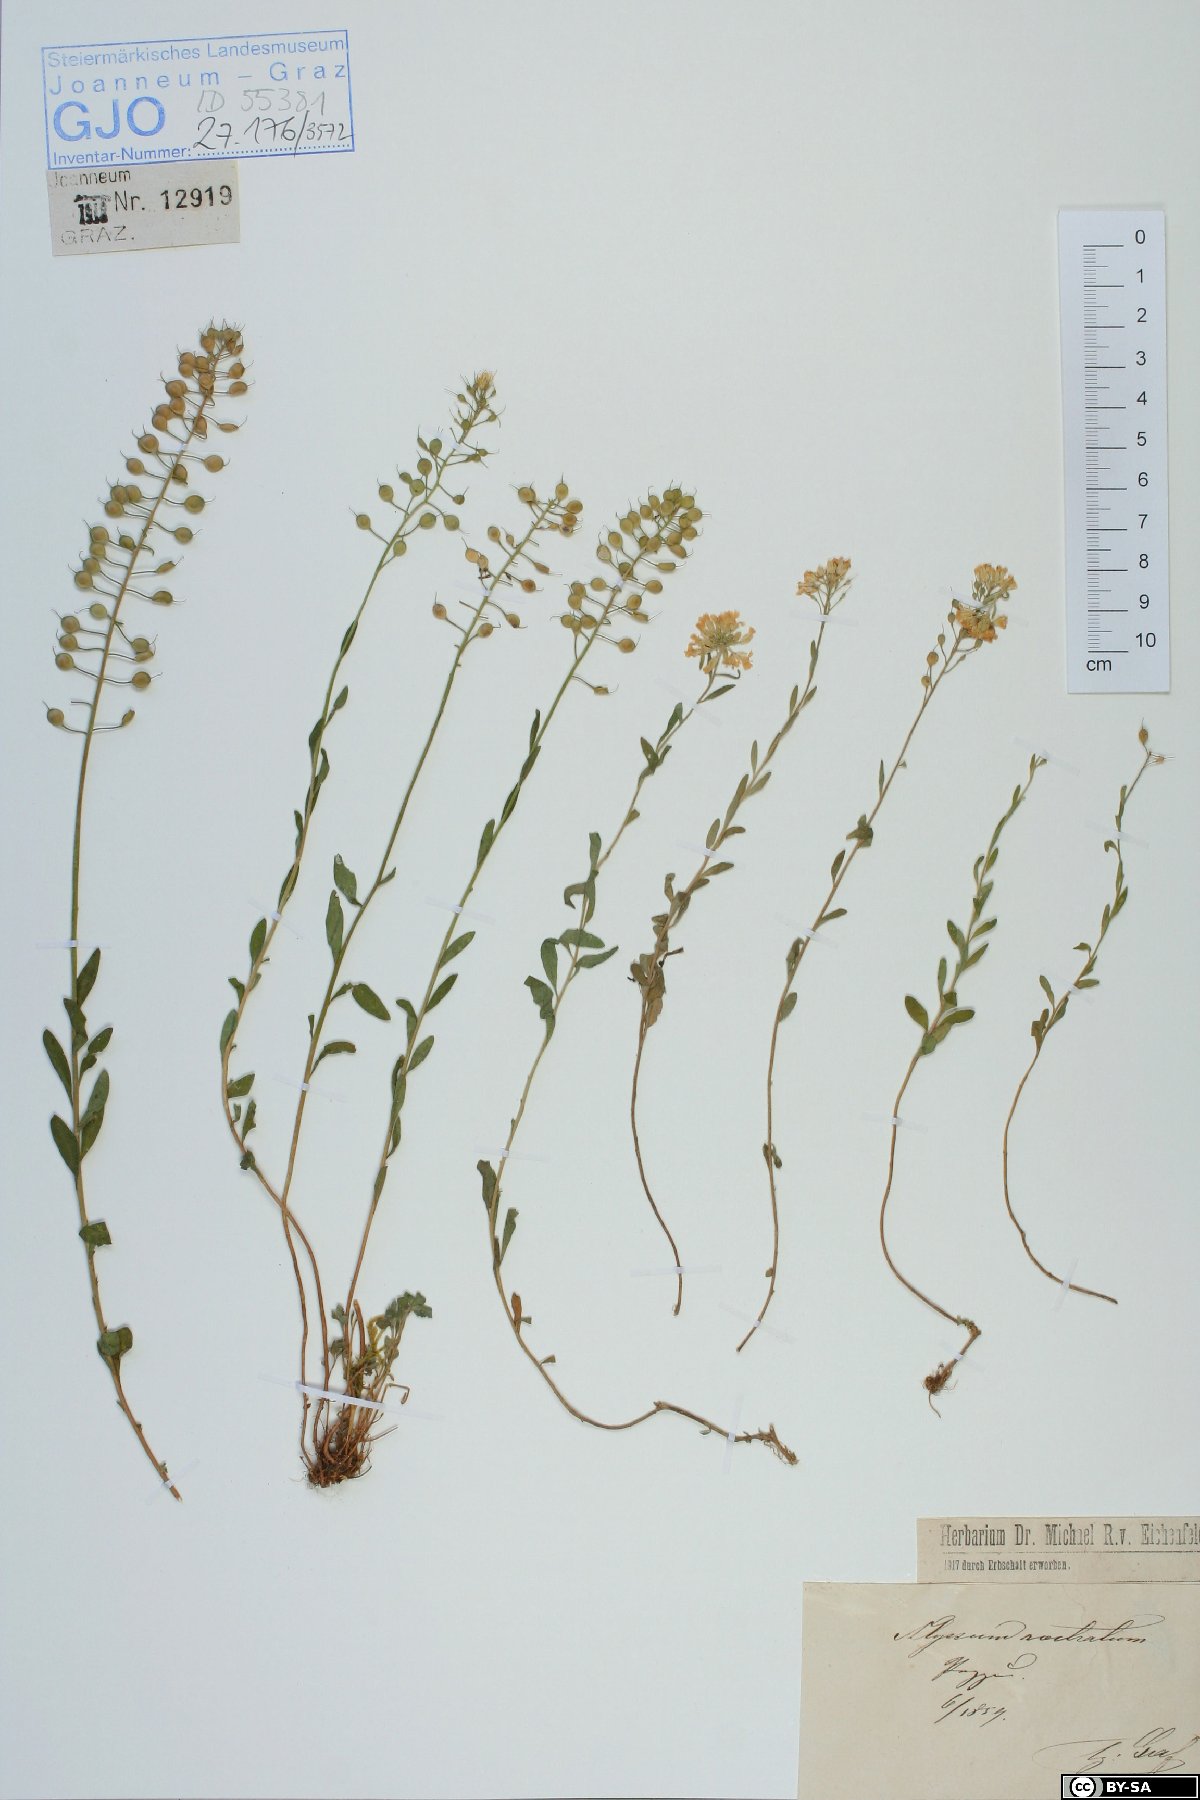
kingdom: Plantae
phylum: Tracheophyta
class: Magnoliopsida
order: Brassicales
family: Brassicaceae
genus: Alyssum
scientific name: Alyssum rostratum
